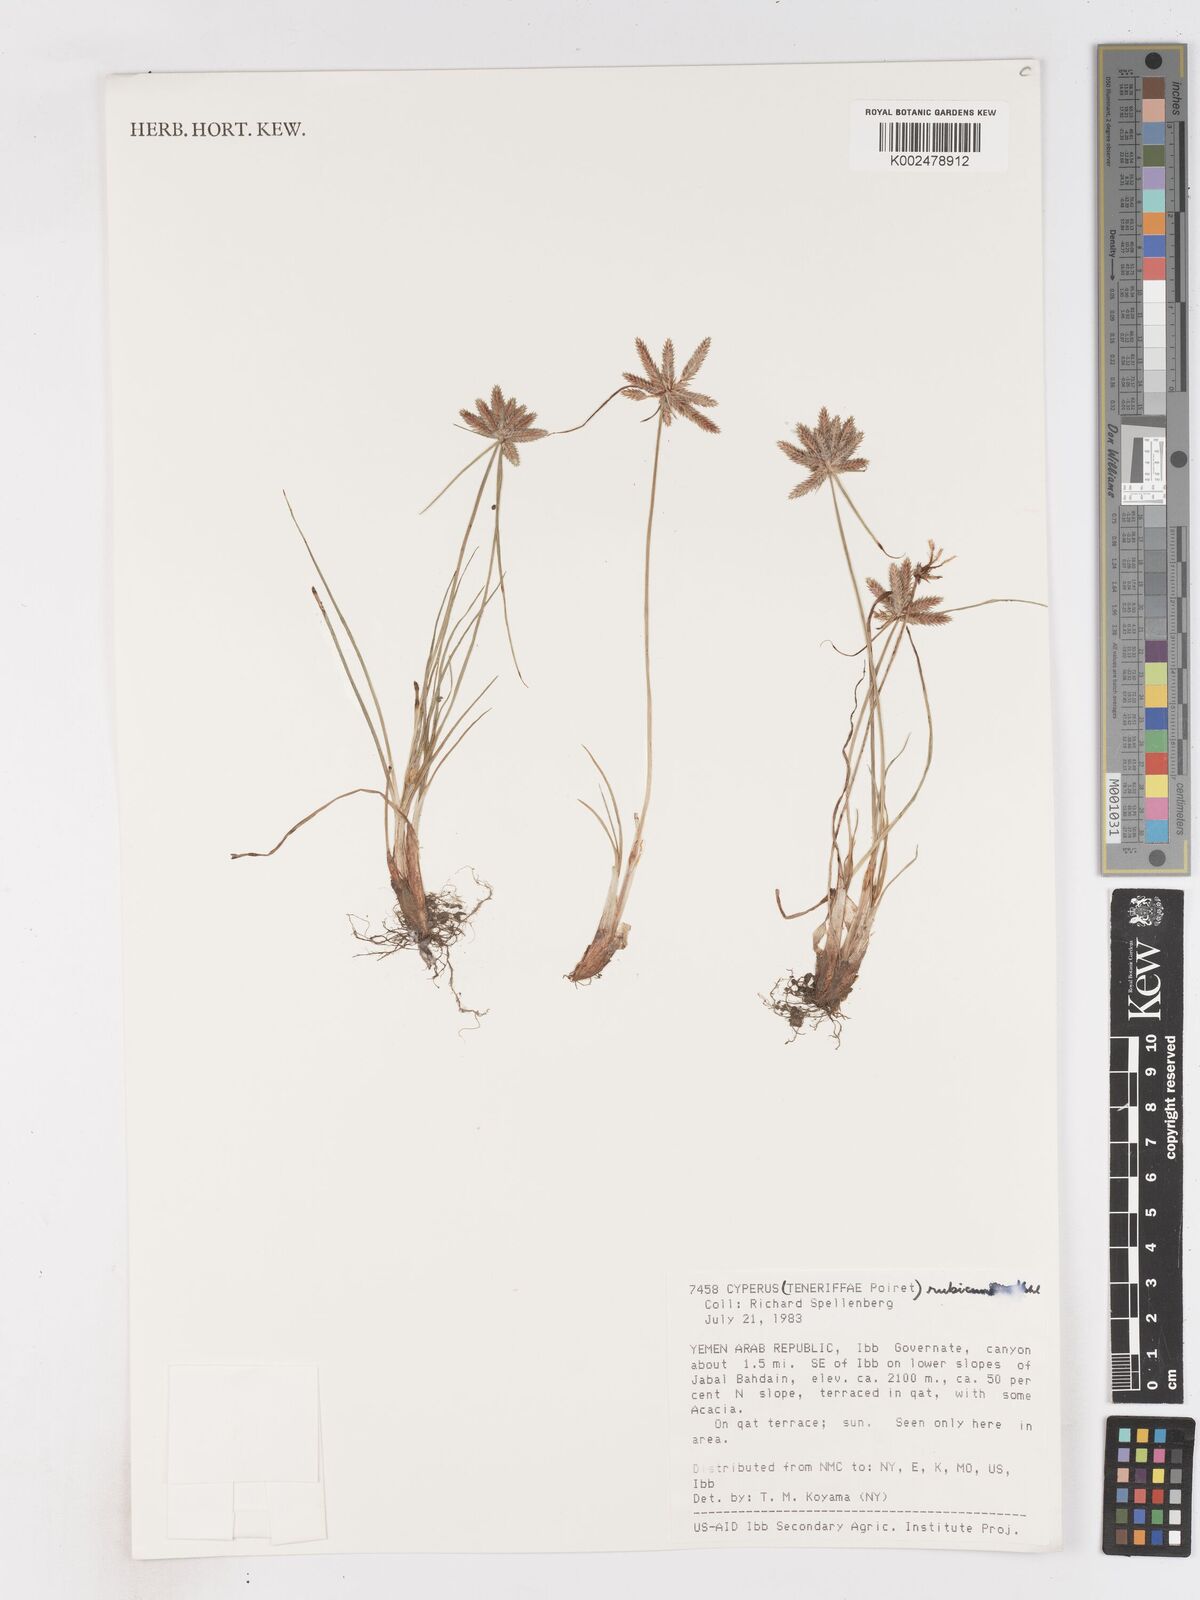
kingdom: Plantae
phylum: Tracheophyta
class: Liliopsida
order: Poales
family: Cyperaceae
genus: Cyperus
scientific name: Cyperus rubicundus
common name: Coco-grass
